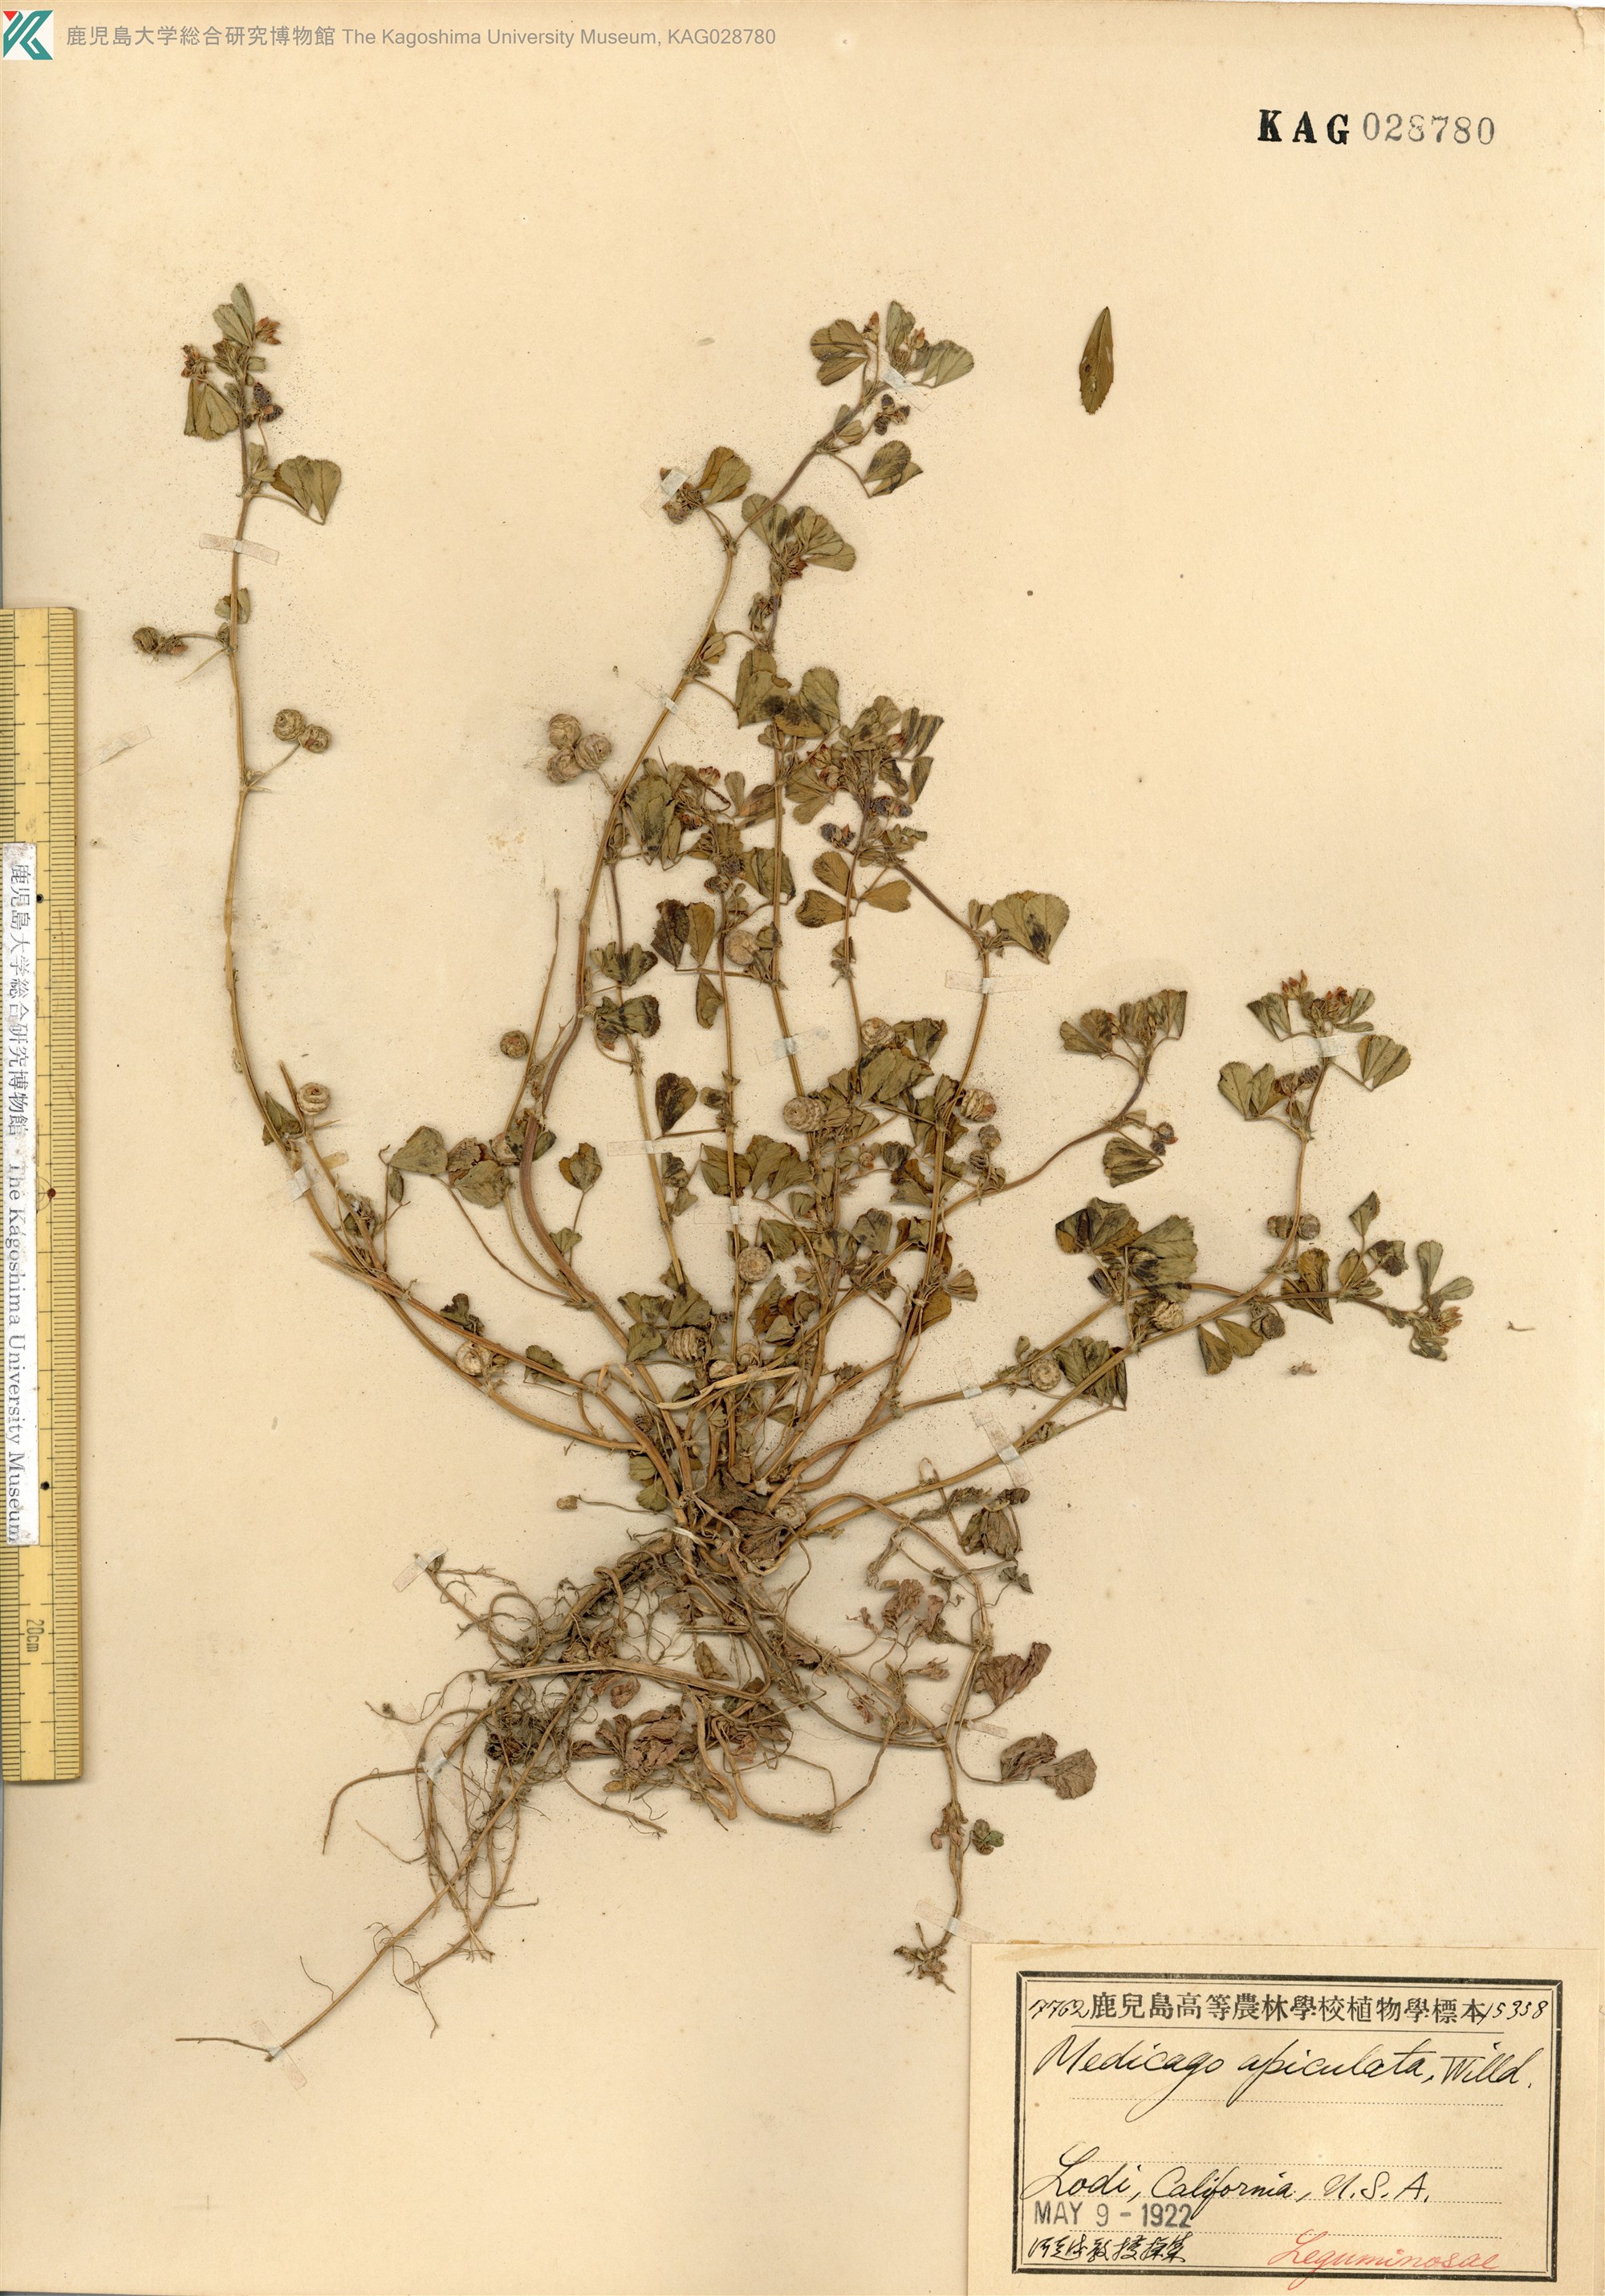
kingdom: Plantae
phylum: Tracheophyta
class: Magnoliopsida
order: Fabales
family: Fabaceae
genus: Medicago
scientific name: Medicago
